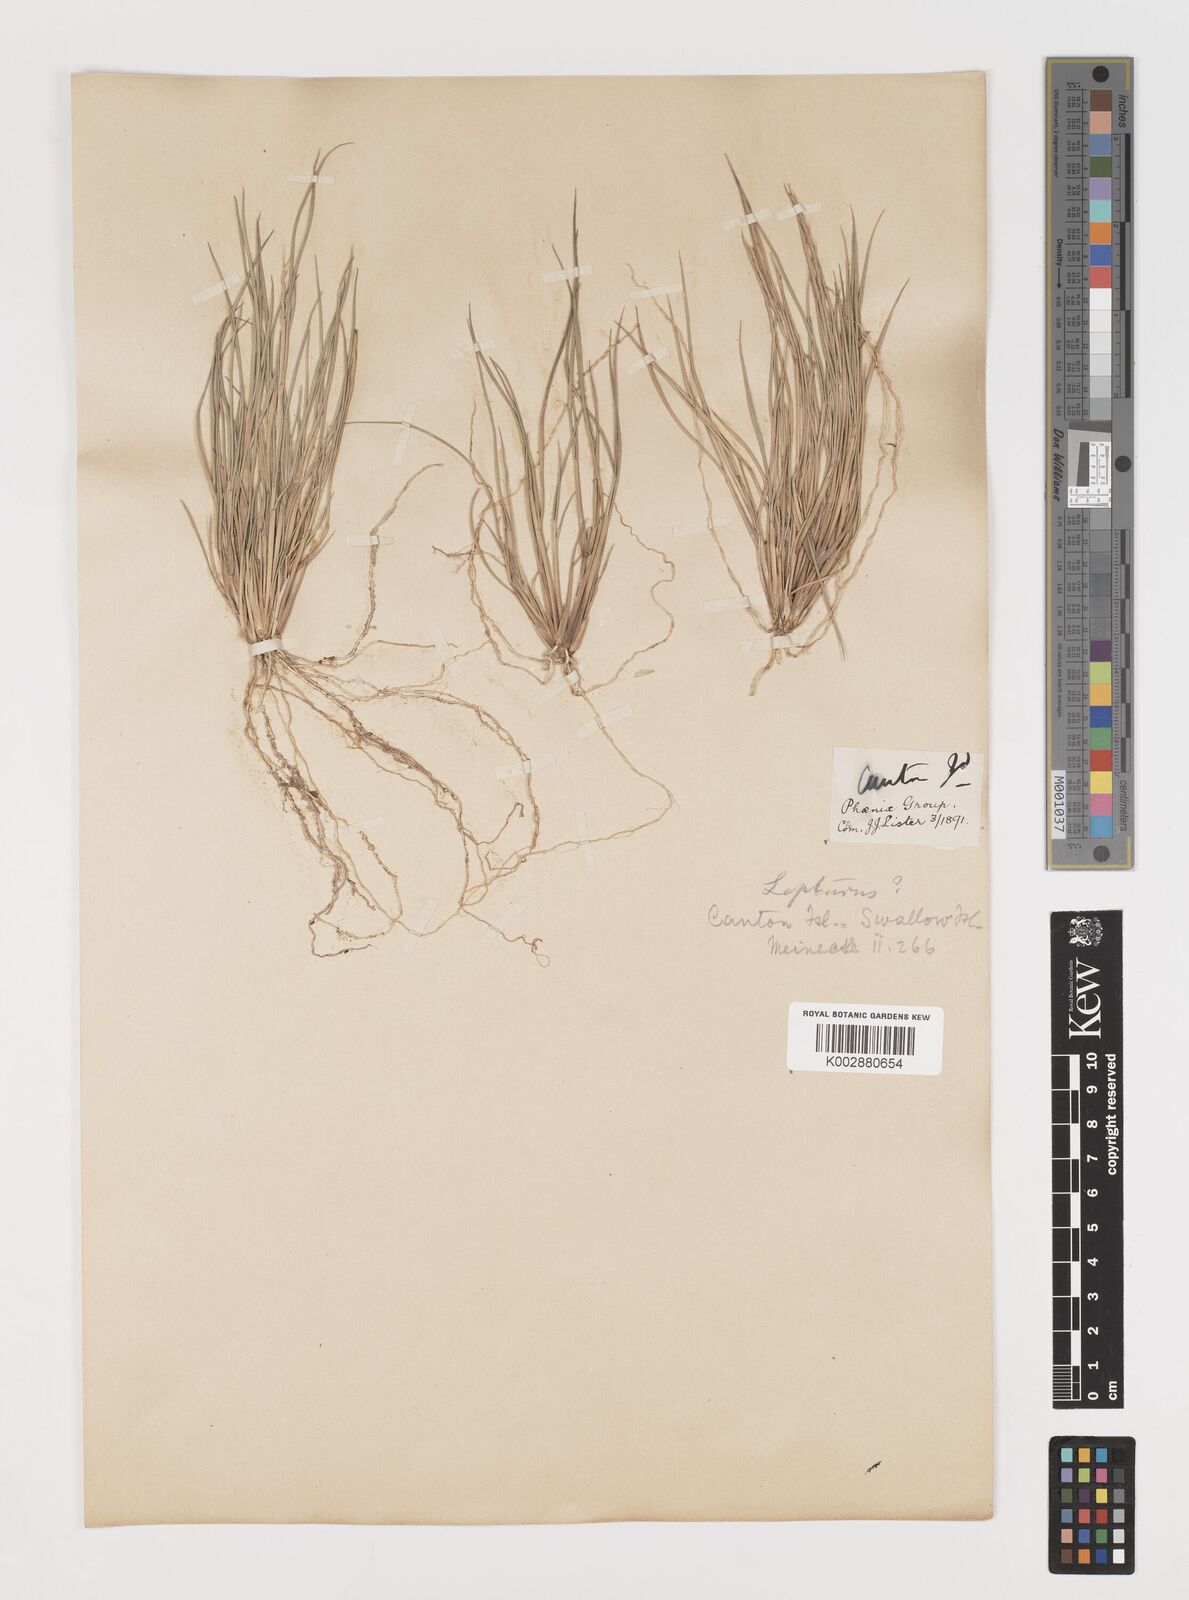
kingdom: Plantae
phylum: Tracheophyta
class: Liliopsida
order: Poales
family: Poaceae
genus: Lepturus
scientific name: Lepturus
